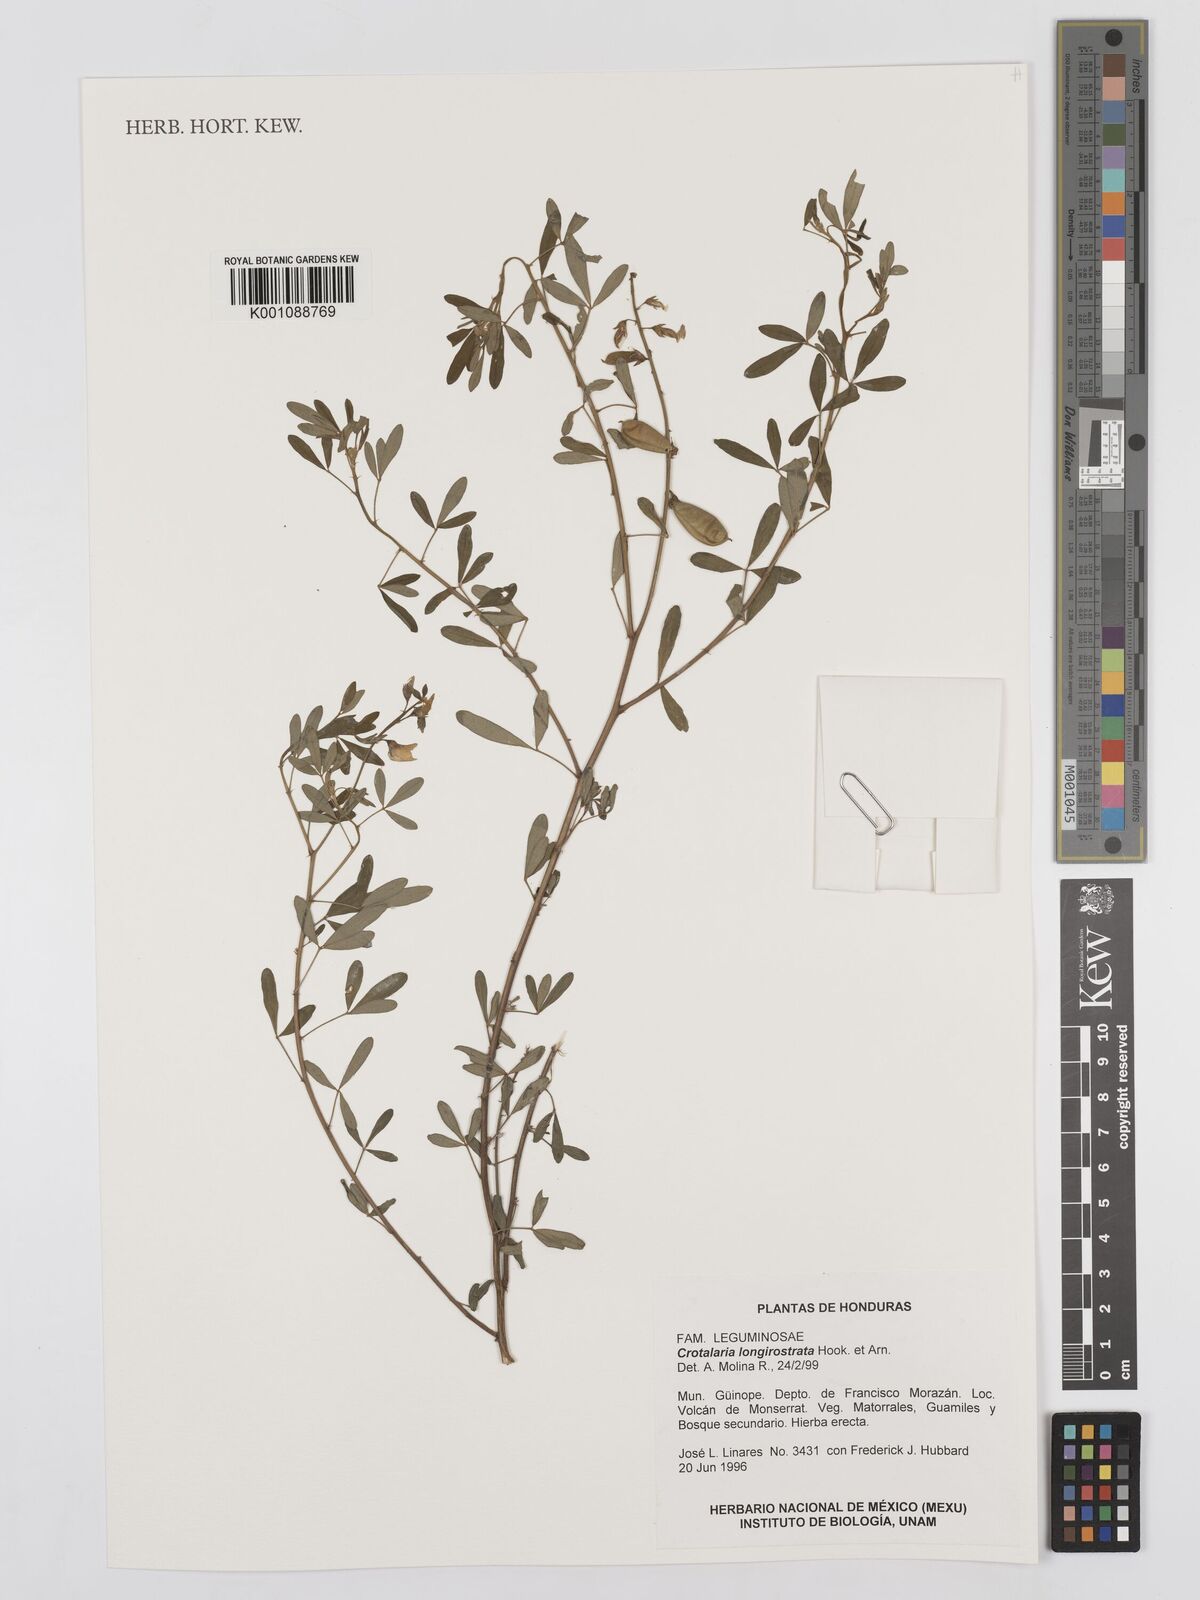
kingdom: Plantae
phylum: Tracheophyta
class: Magnoliopsida
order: Fabales
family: Fabaceae
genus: Crotalaria
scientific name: Crotalaria longirostrata
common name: Longbeak rattlebox
